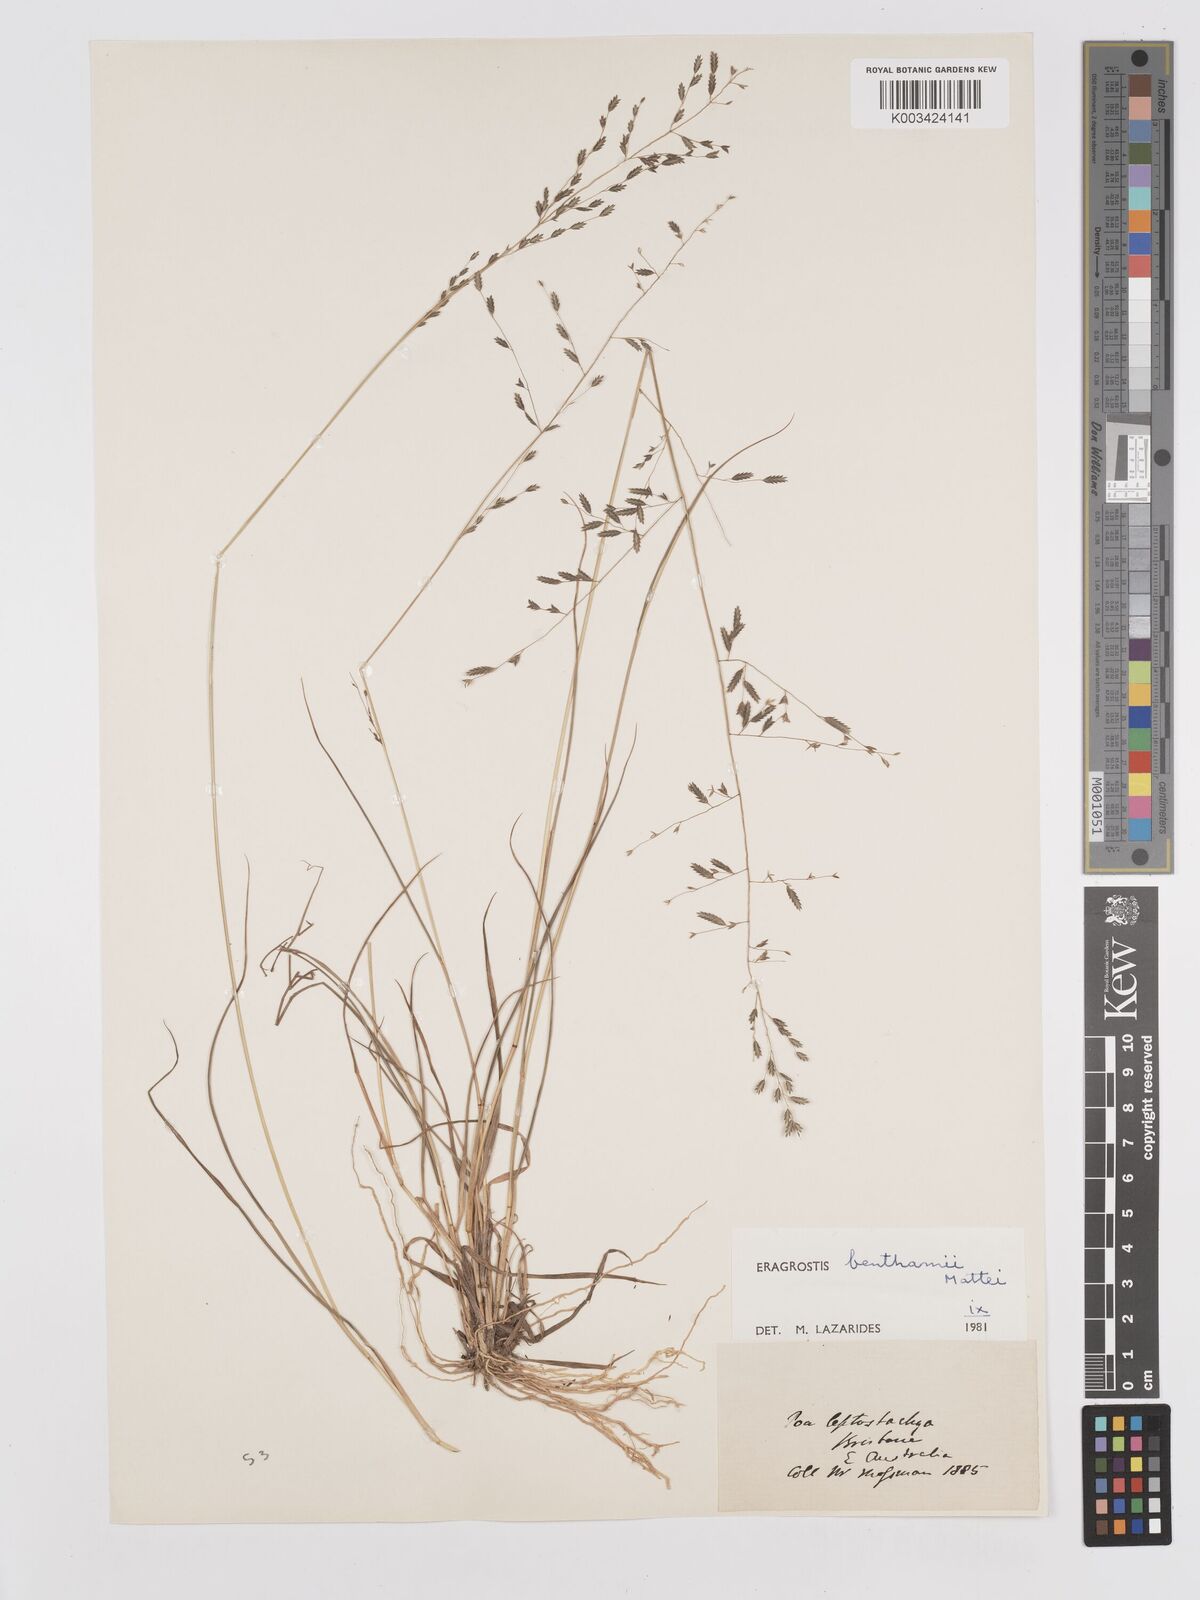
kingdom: Plantae
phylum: Tracheophyta
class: Liliopsida
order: Poales
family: Poaceae
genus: Eragrostis
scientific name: Eragrostis brownii
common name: Lovegrass
